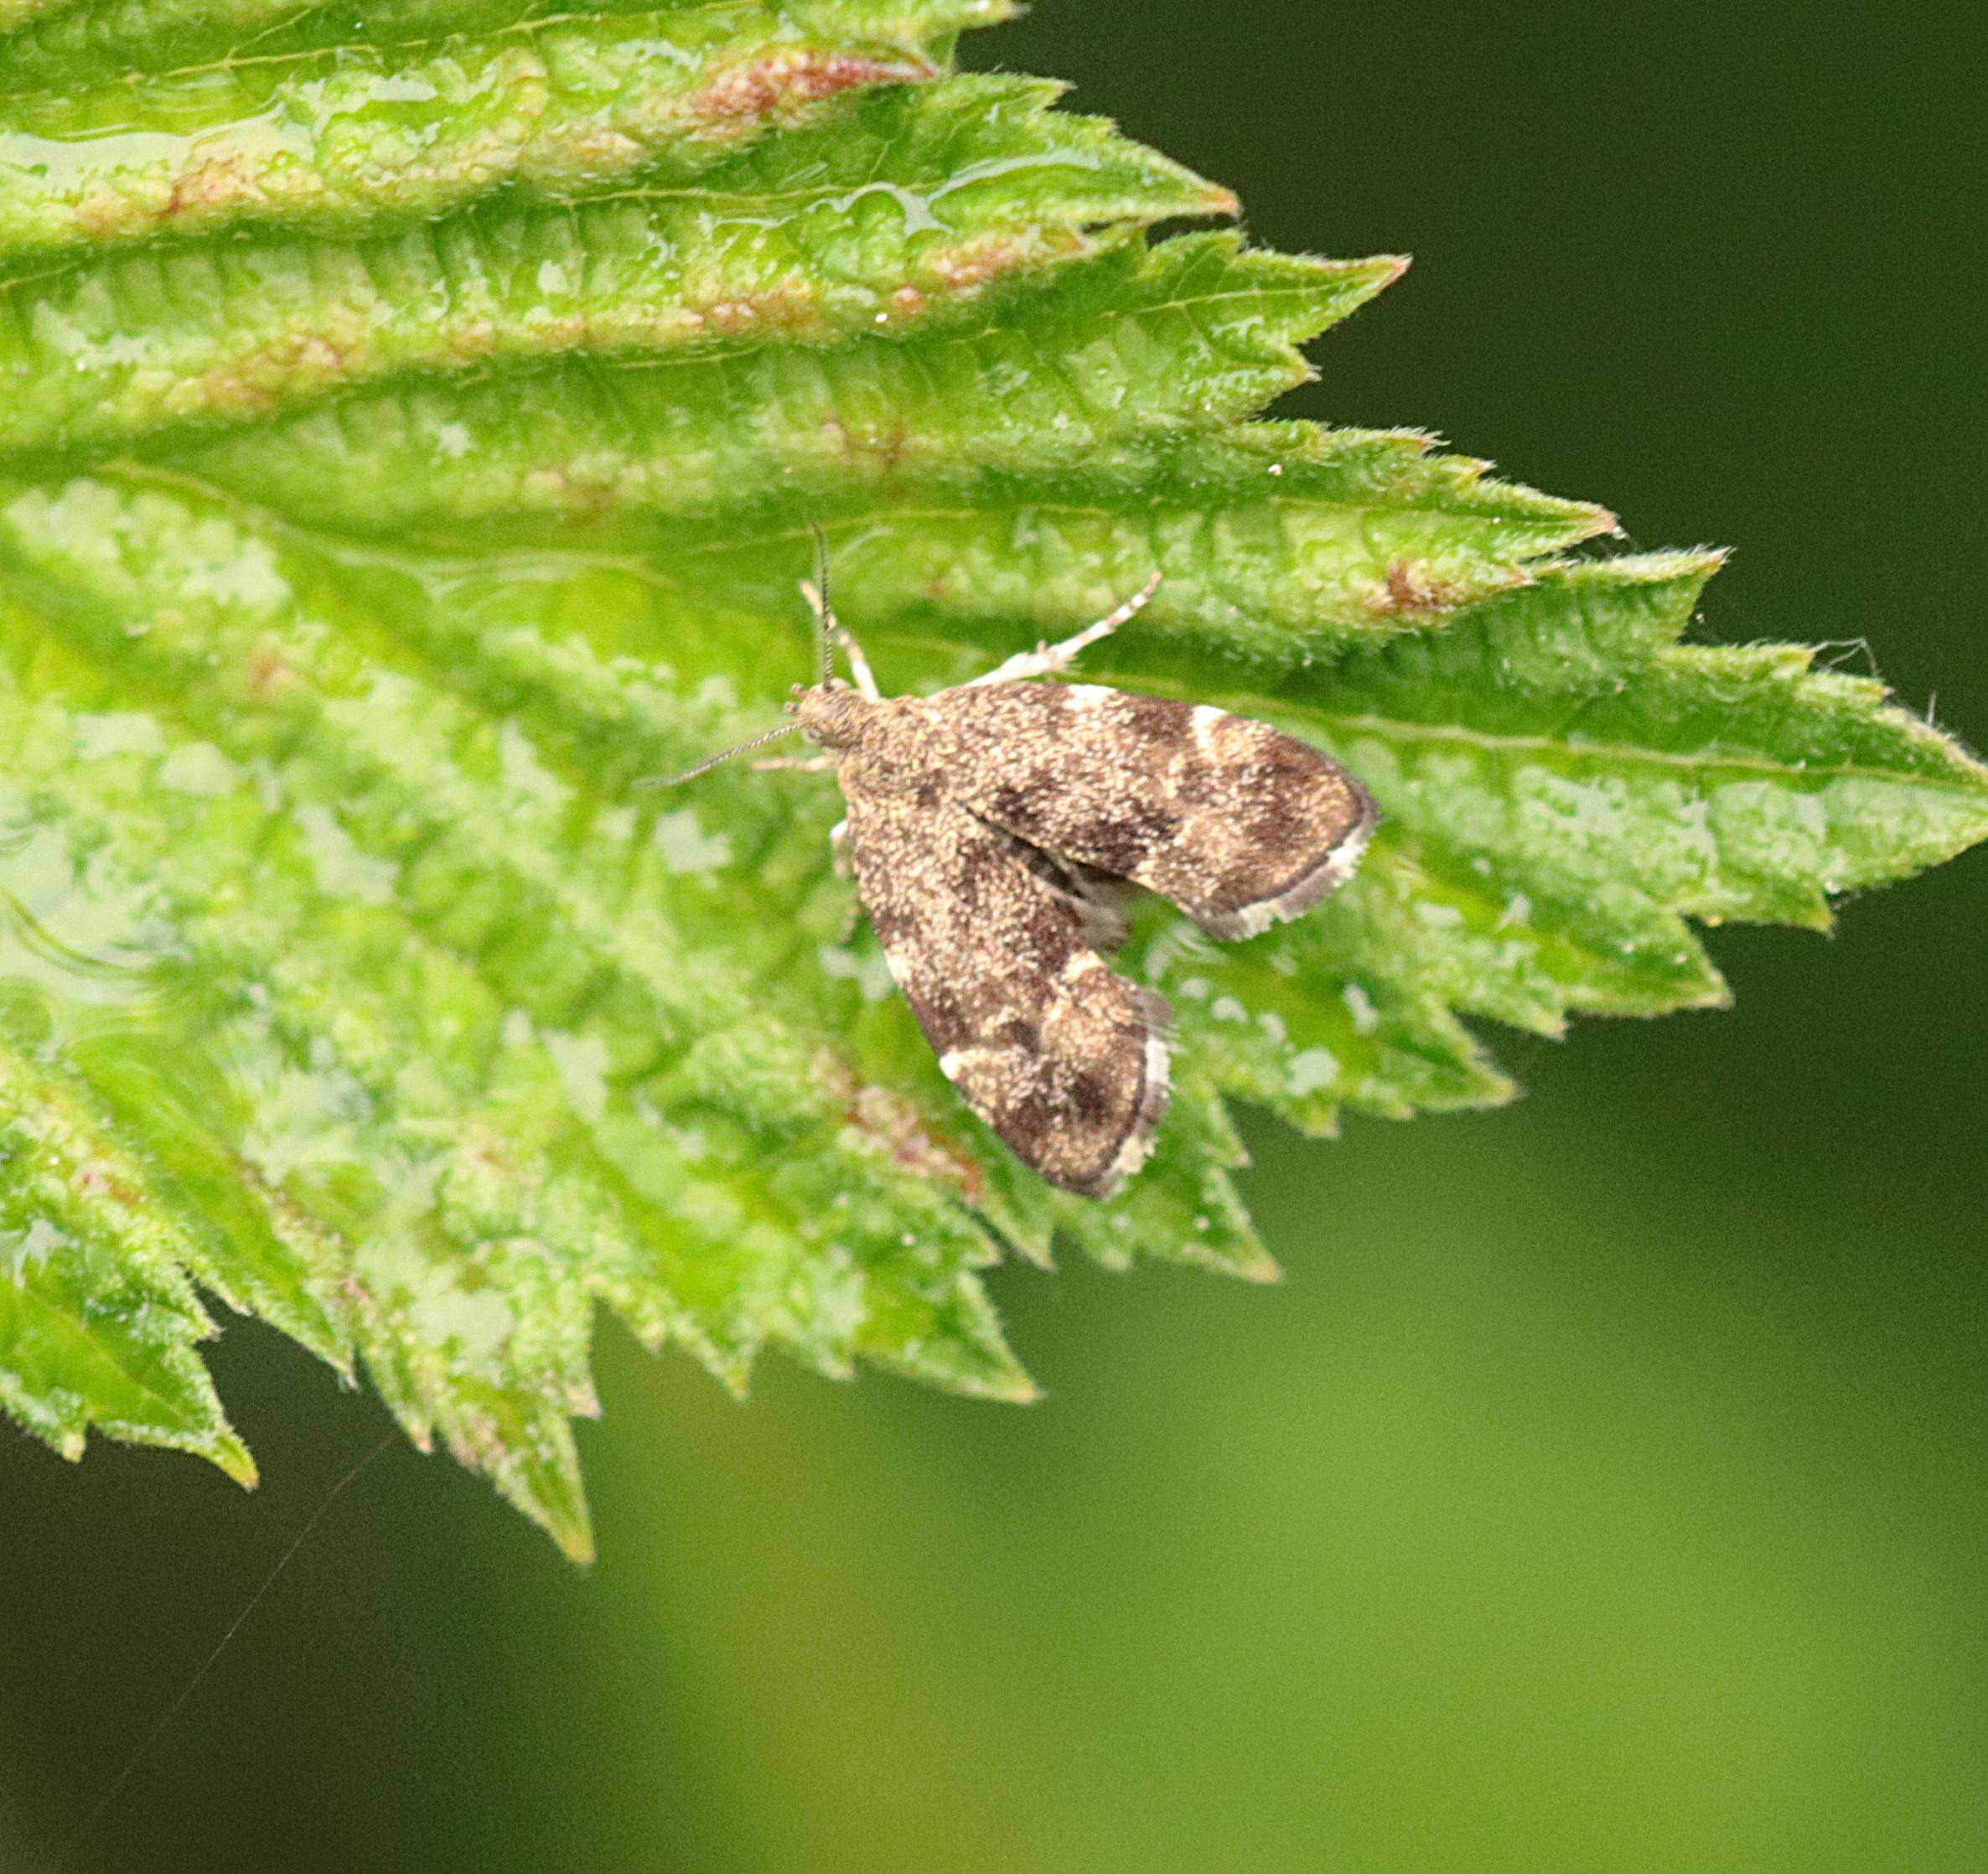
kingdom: Animalia
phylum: Arthropoda
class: Insecta
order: Lepidoptera
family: Choreutidae
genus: Anthophila
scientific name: Anthophila fabriciana
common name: Bredvinget nældevikler
